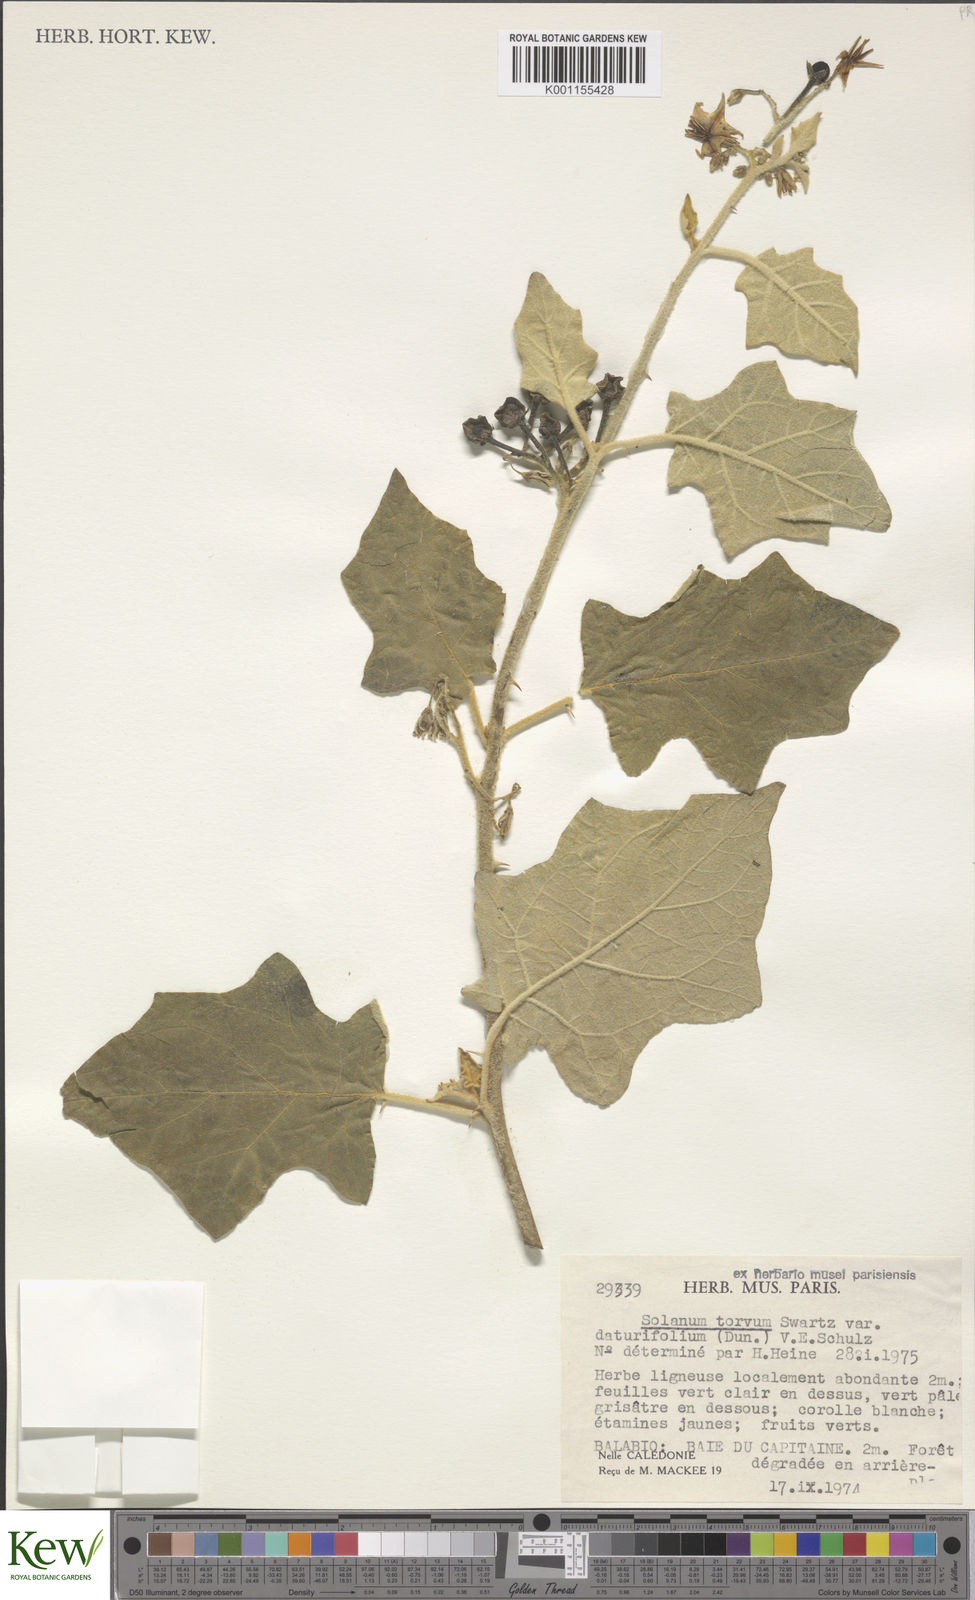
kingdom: Plantae
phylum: Tracheophyta
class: Magnoliopsida
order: Solanales
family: Solanaceae
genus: Solanum
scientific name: Solanum torvum
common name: Turkey berry
